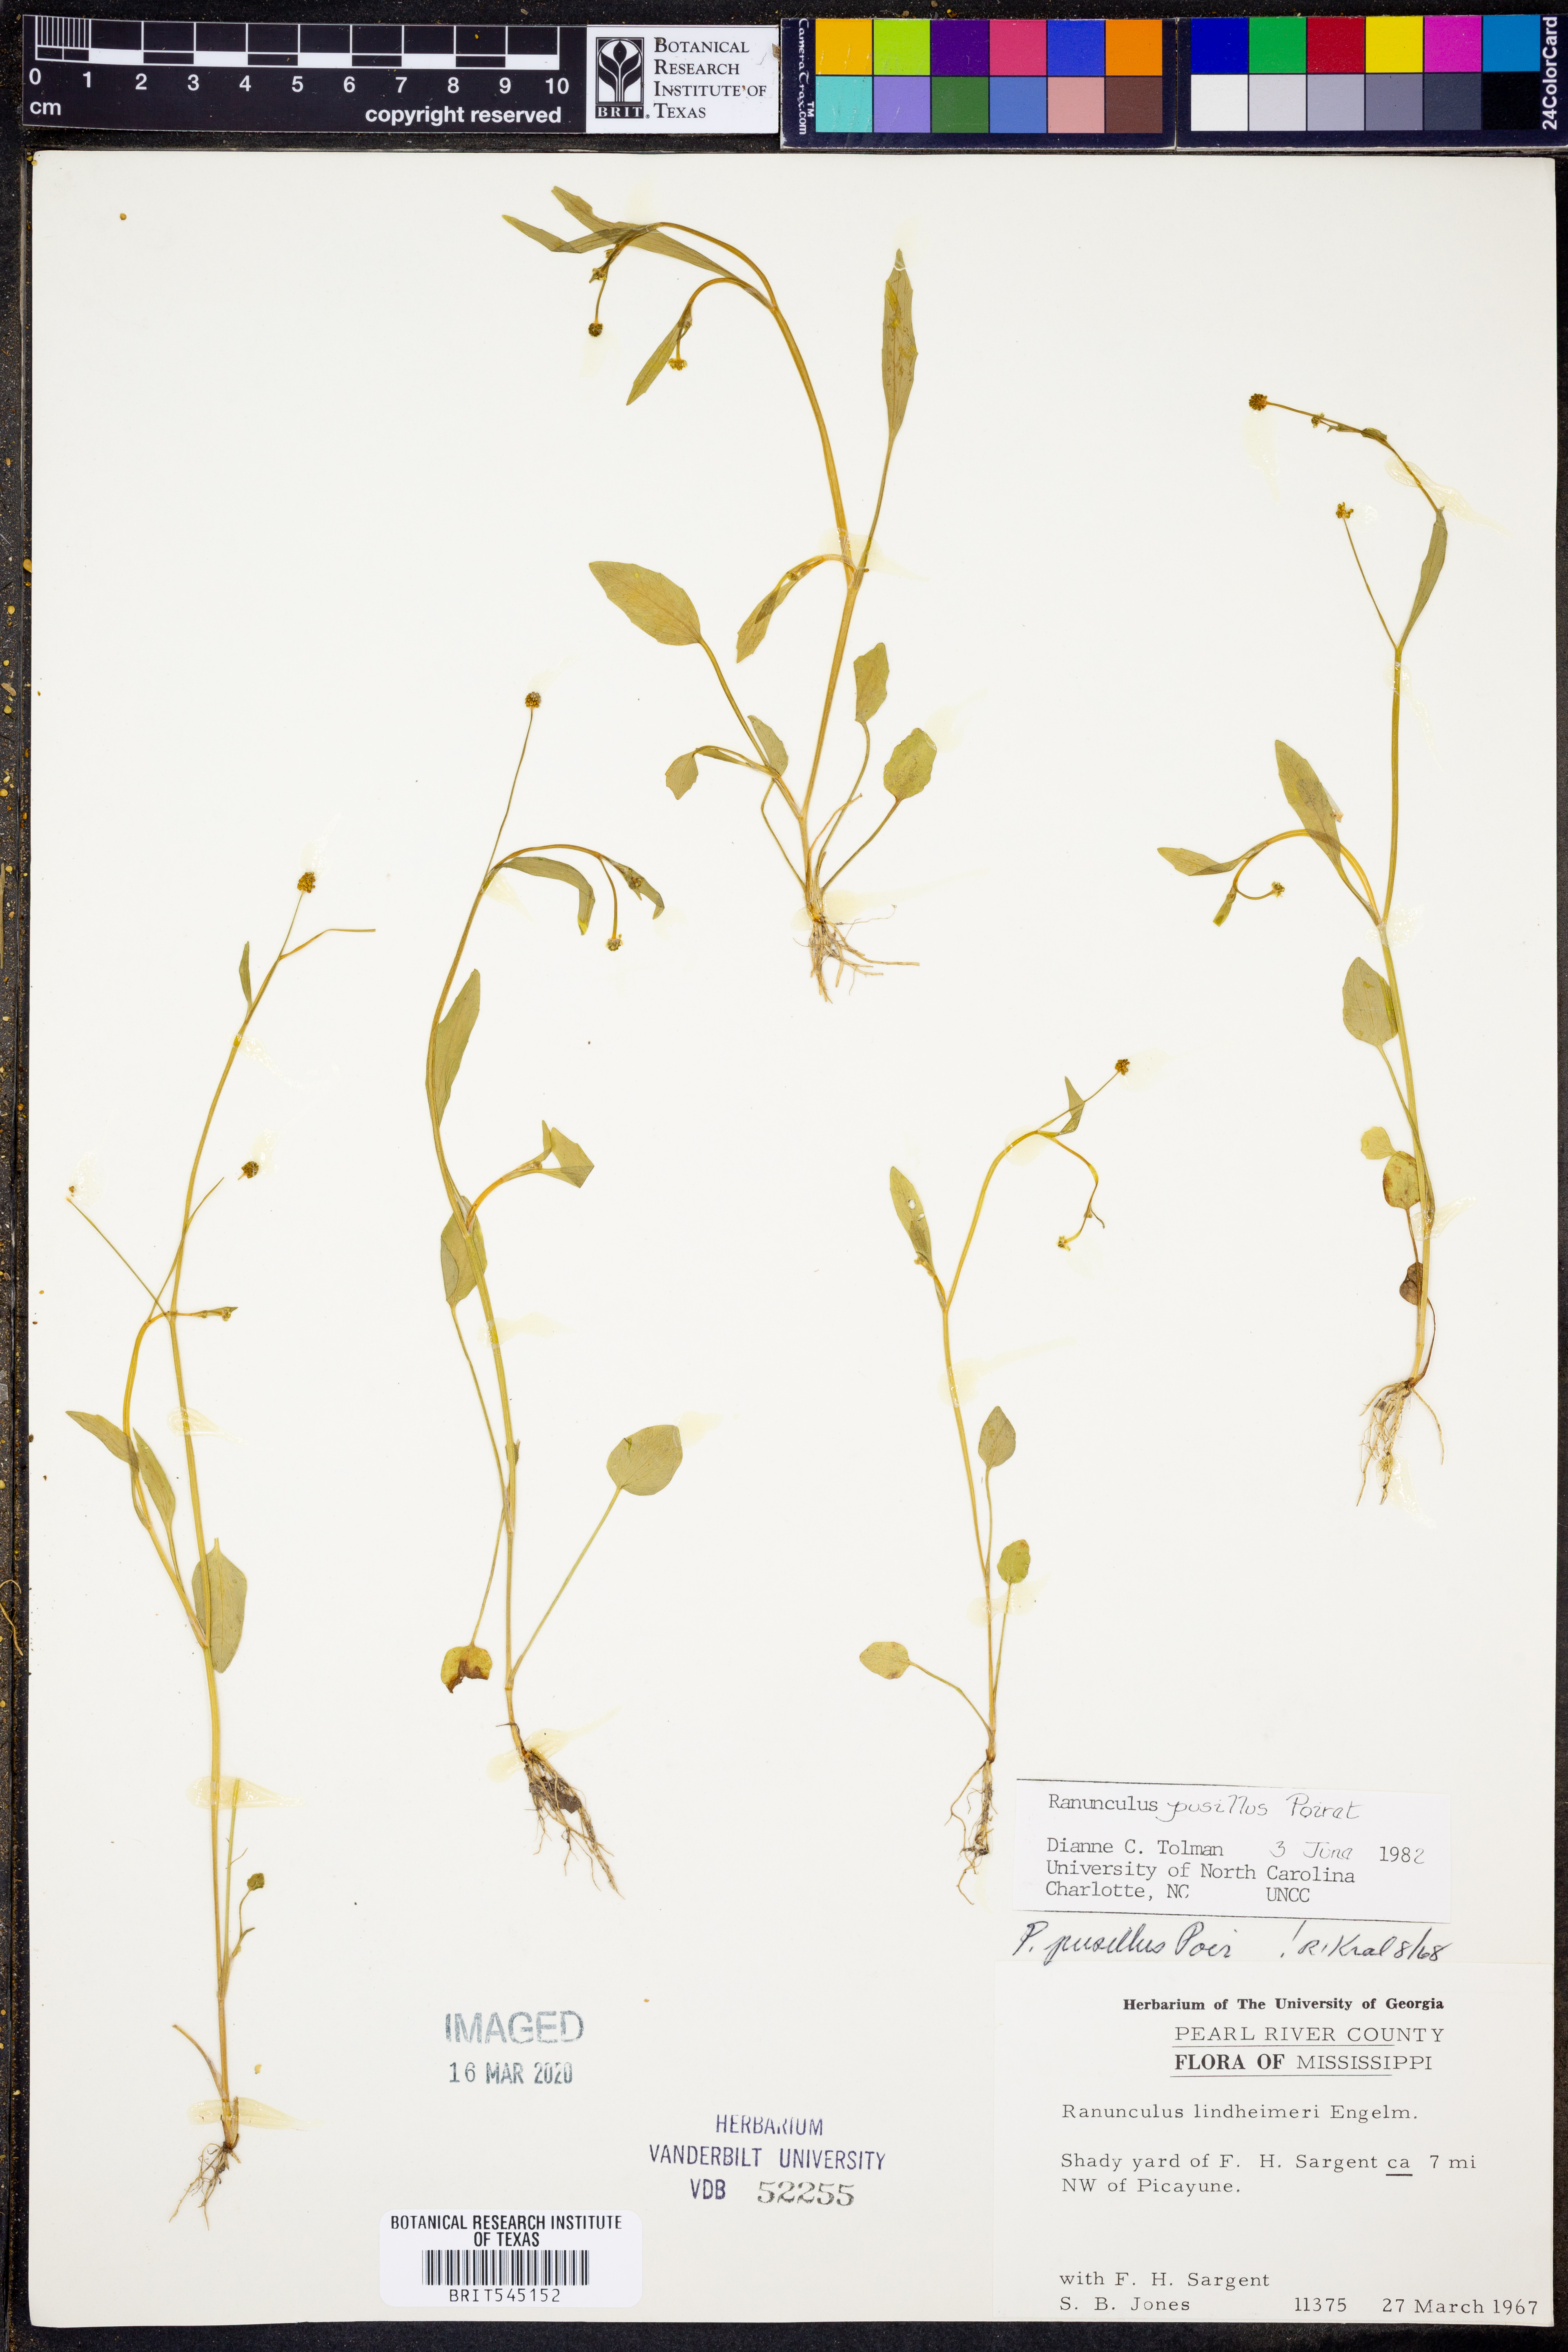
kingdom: Plantae
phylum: Tracheophyta
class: Magnoliopsida
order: Ranunculales
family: Ranunculaceae
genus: Ranunculus
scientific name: Ranunculus pusillus
